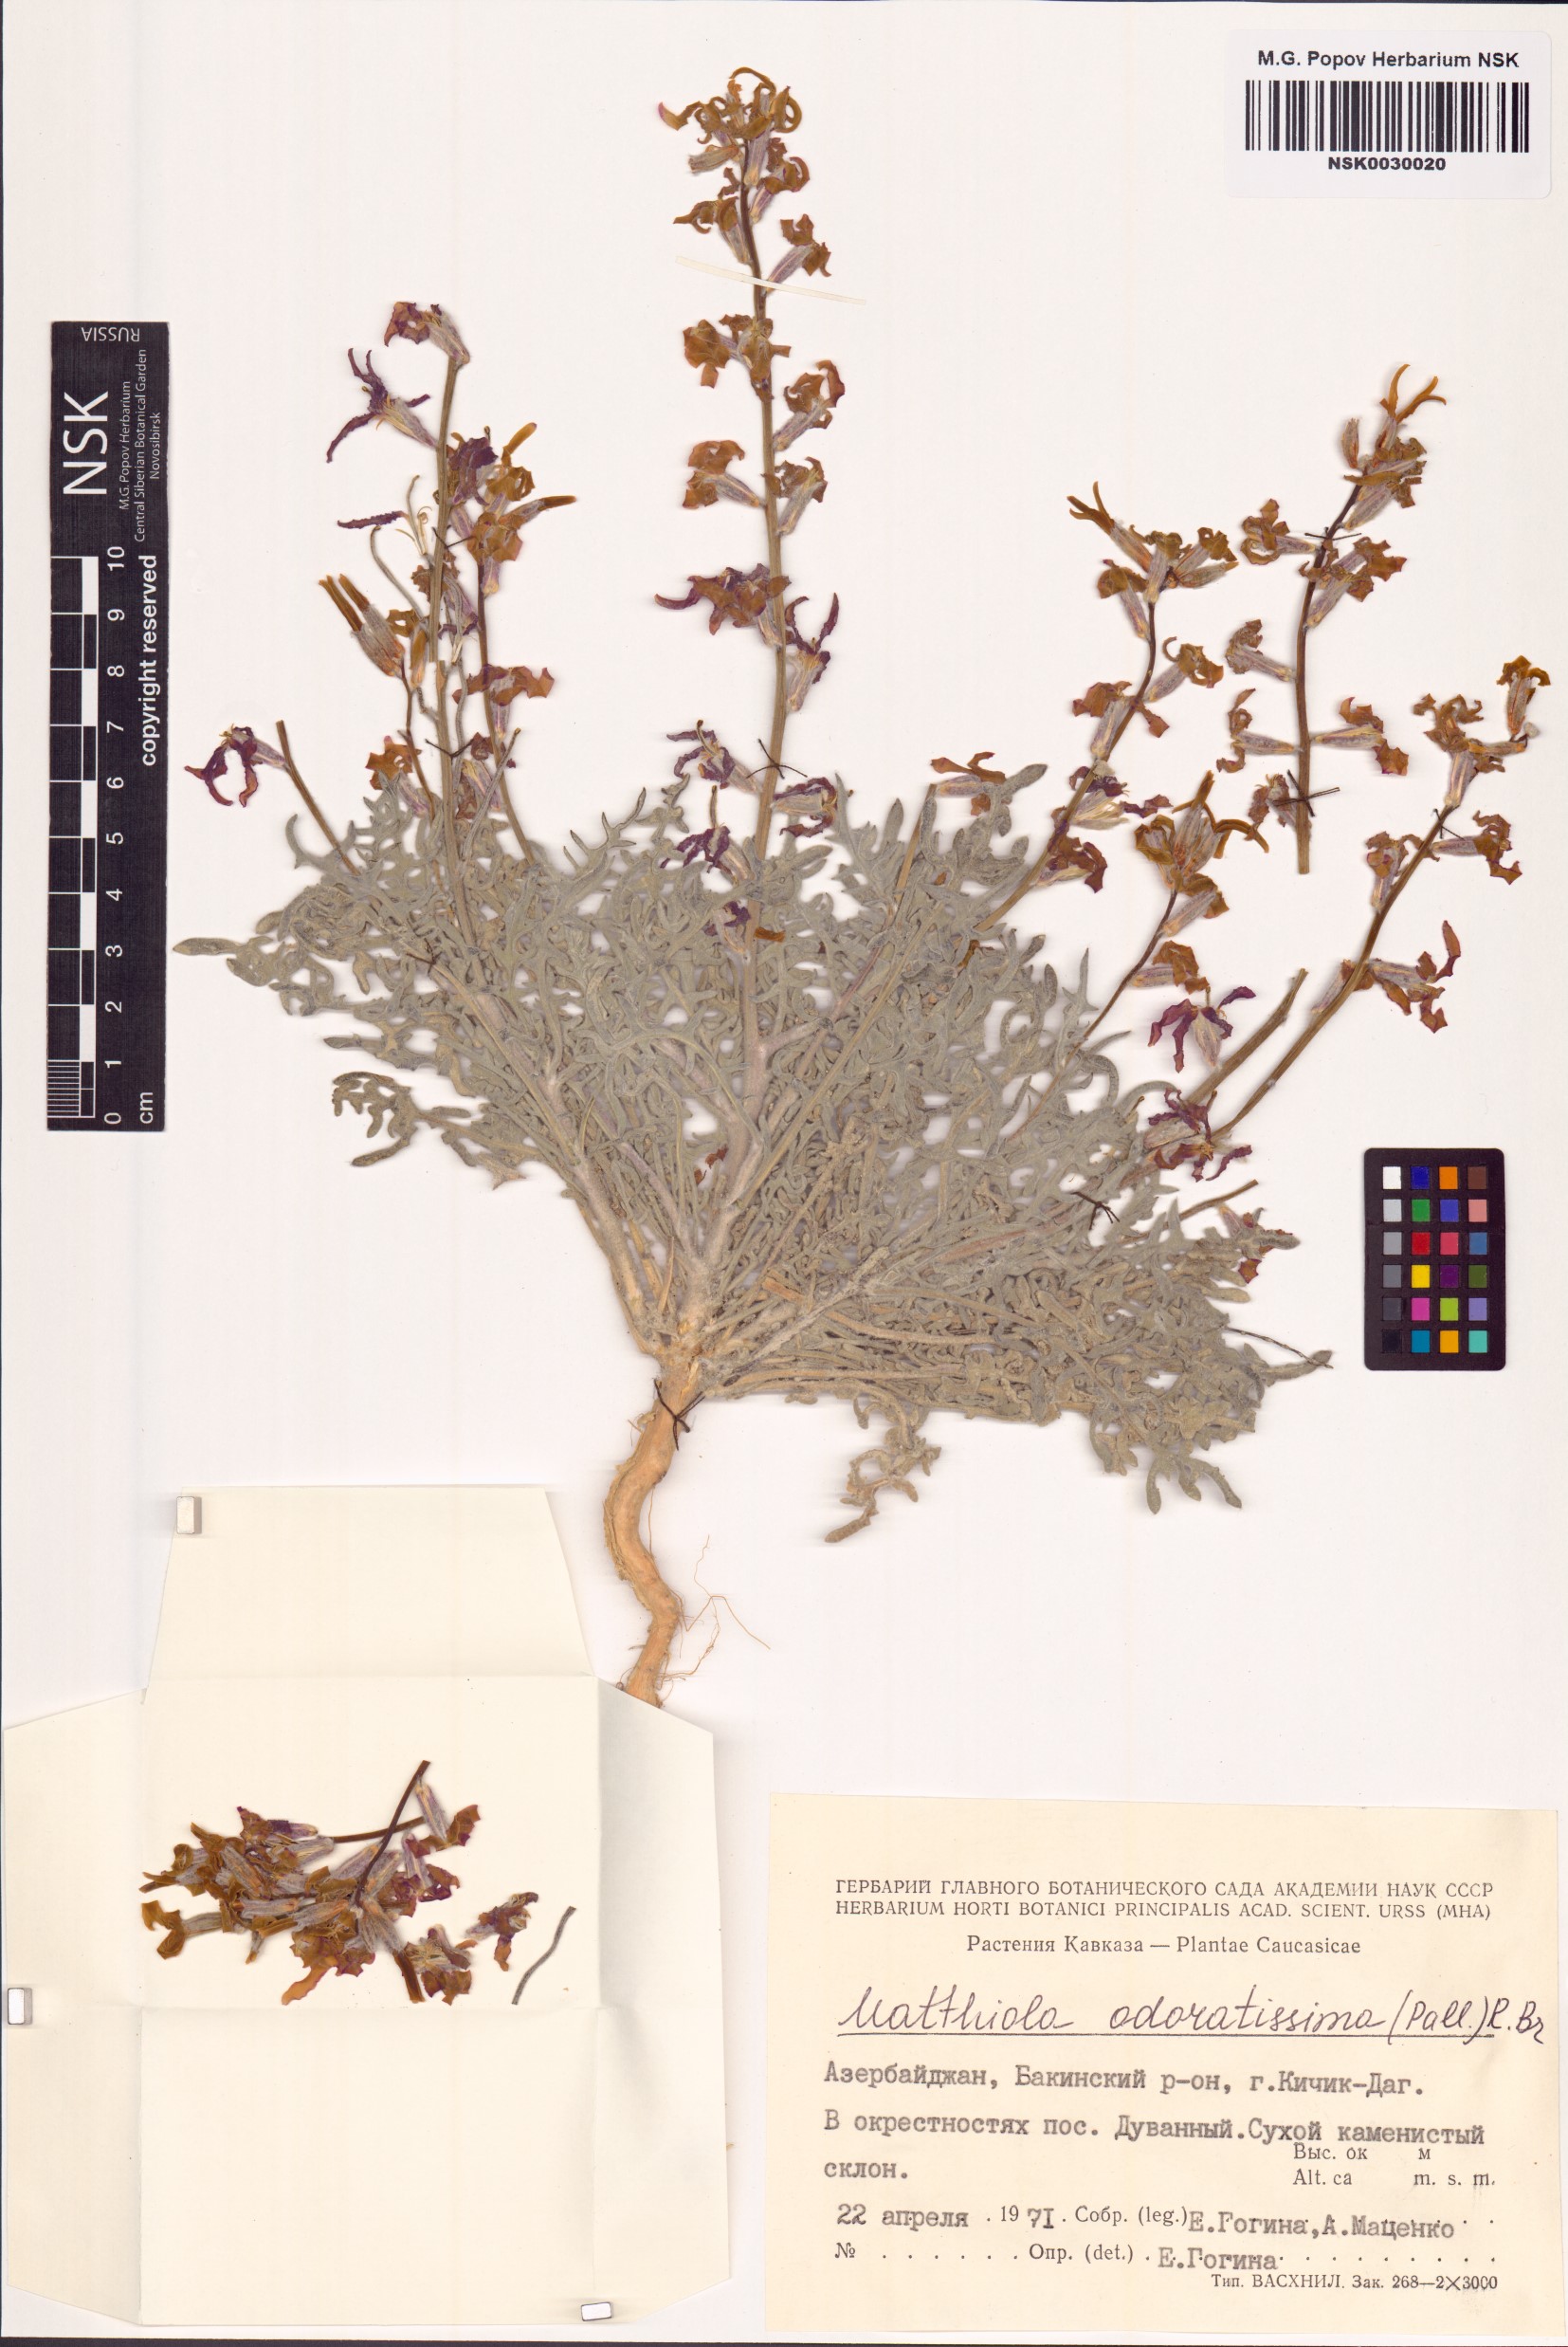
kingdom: Plantae
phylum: Tracheophyta
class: Magnoliopsida
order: Brassicales
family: Brassicaceae
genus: Matthiola
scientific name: Matthiola odoratissima
